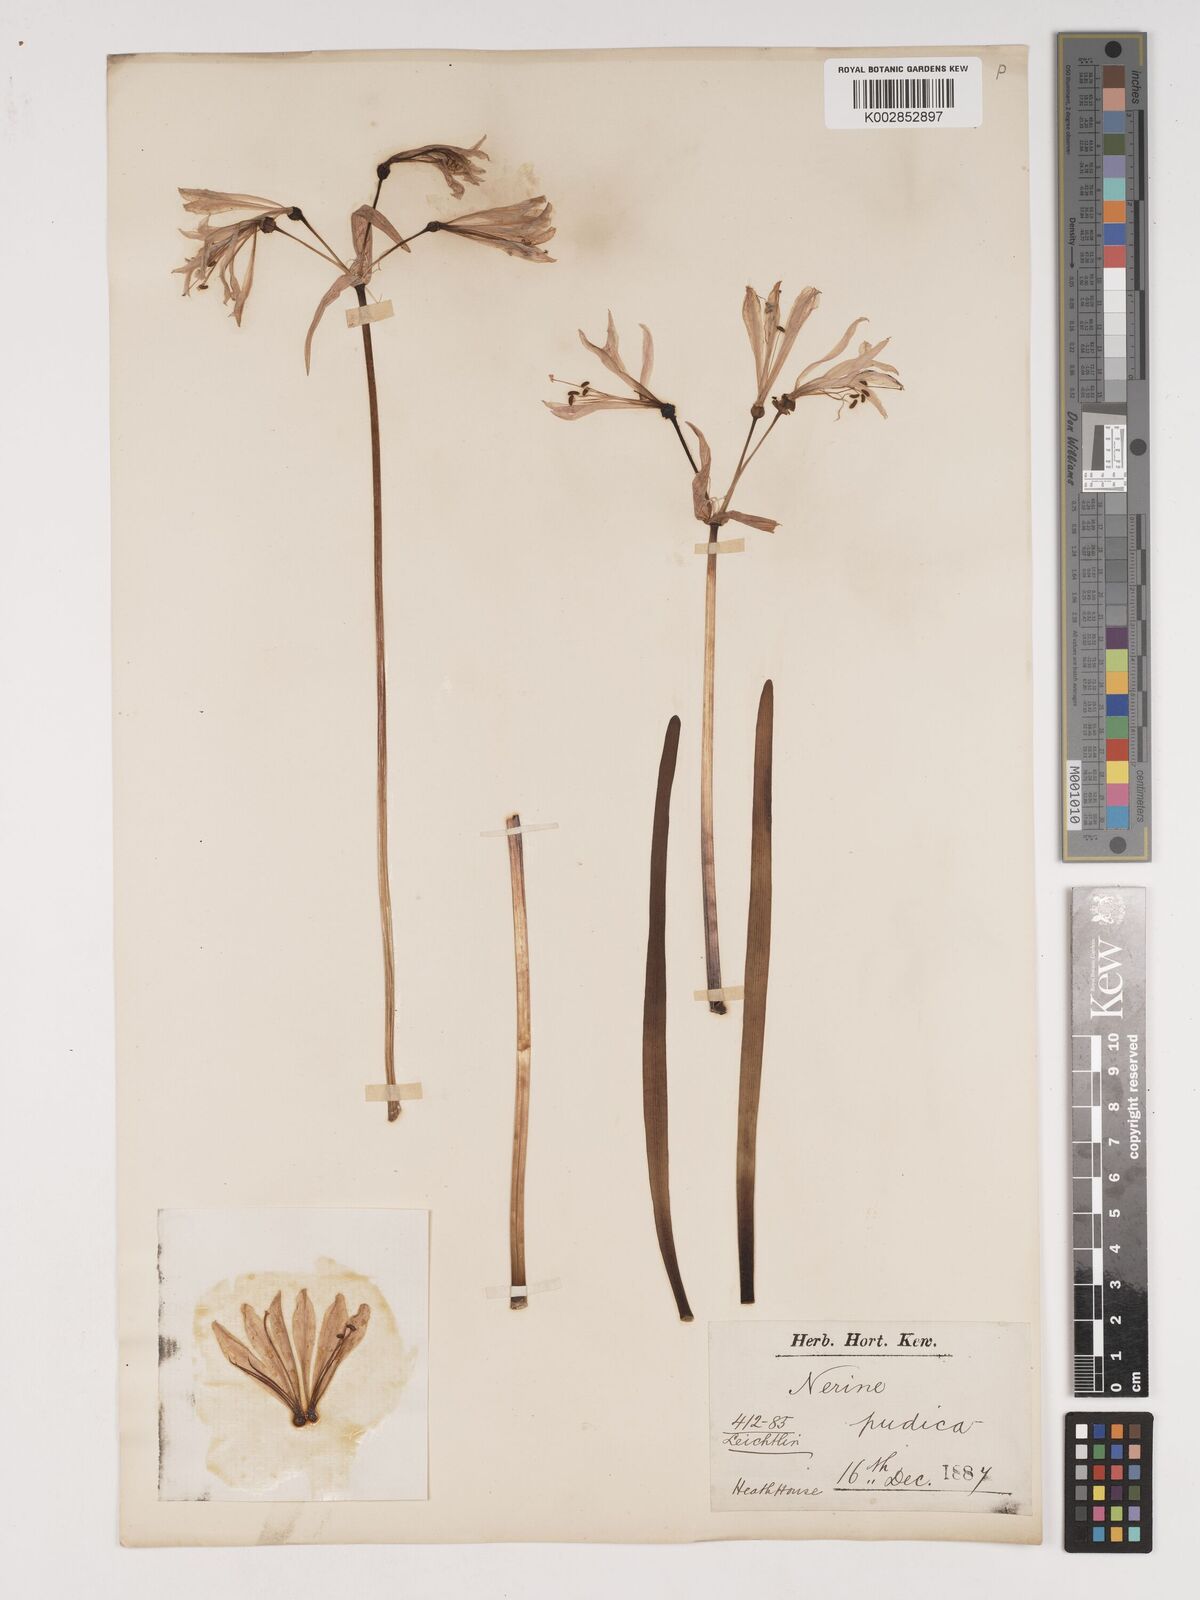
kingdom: Plantae
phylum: Tracheophyta
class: Liliopsida
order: Asparagales
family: Amaryllidaceae
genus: Nerine
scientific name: Nerine pudica
